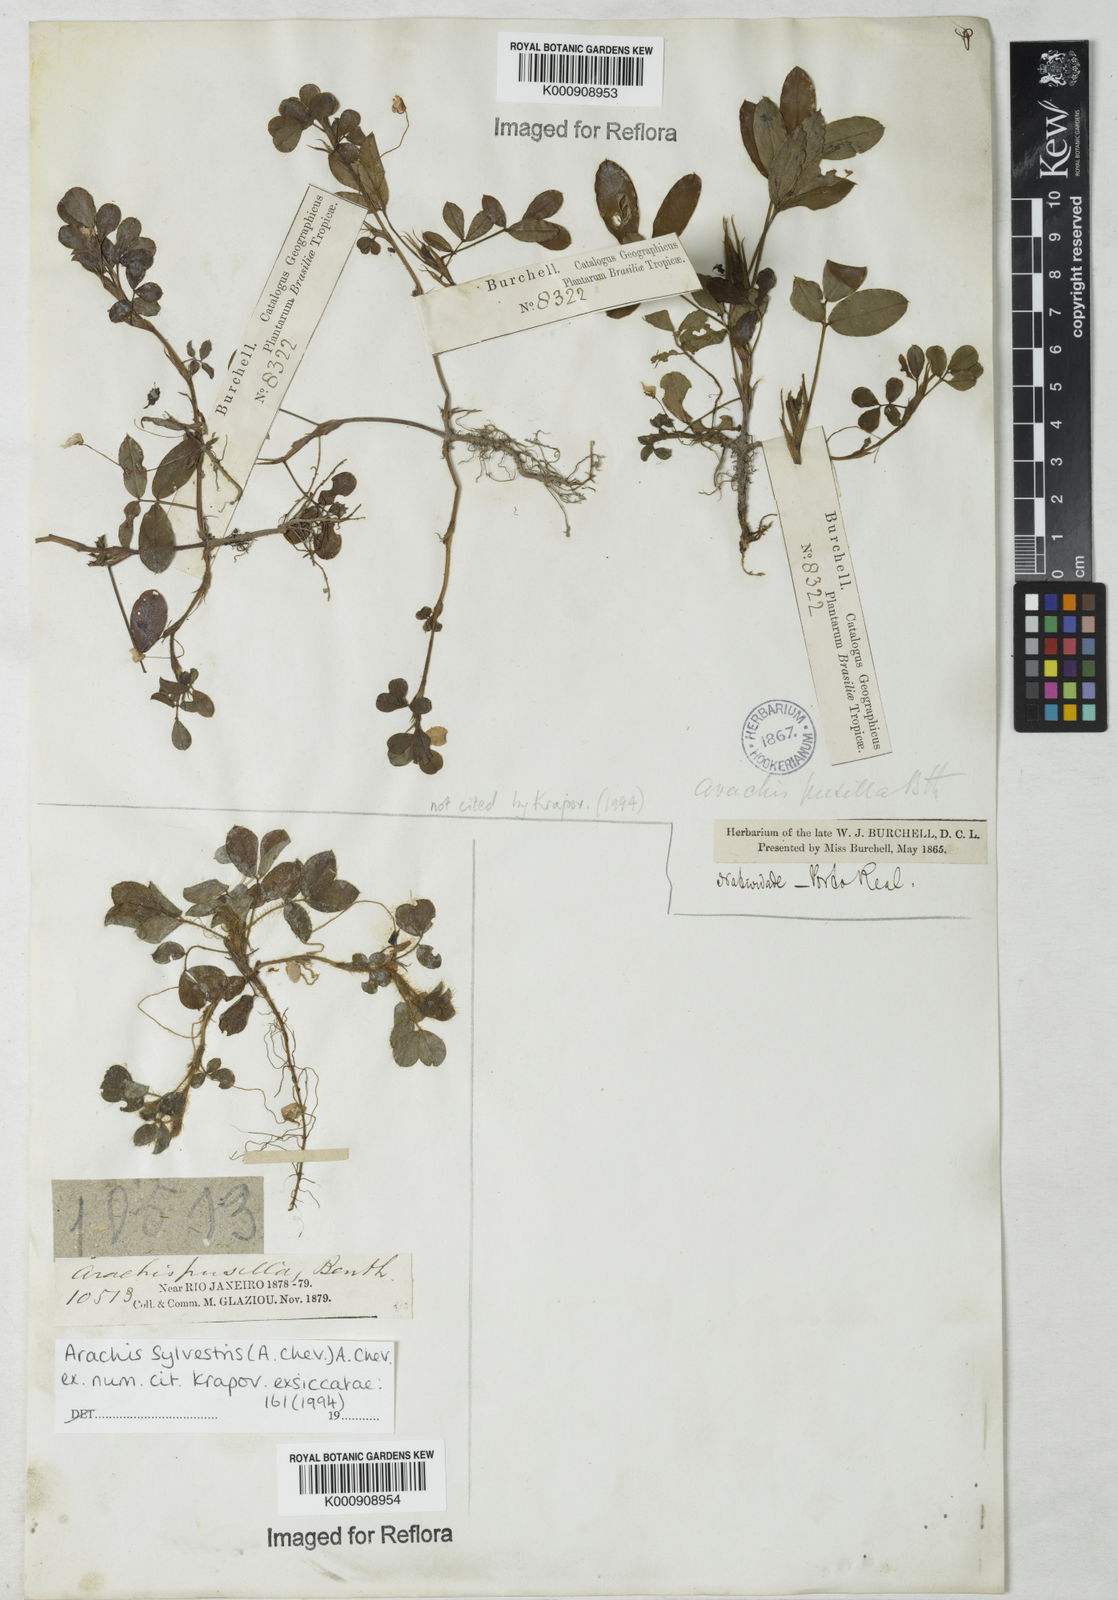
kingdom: Plantae
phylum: Tracheophyta
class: Magnoliopsida
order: Fabales
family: Fabaceae
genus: Arachis
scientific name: Arachis pusilla
